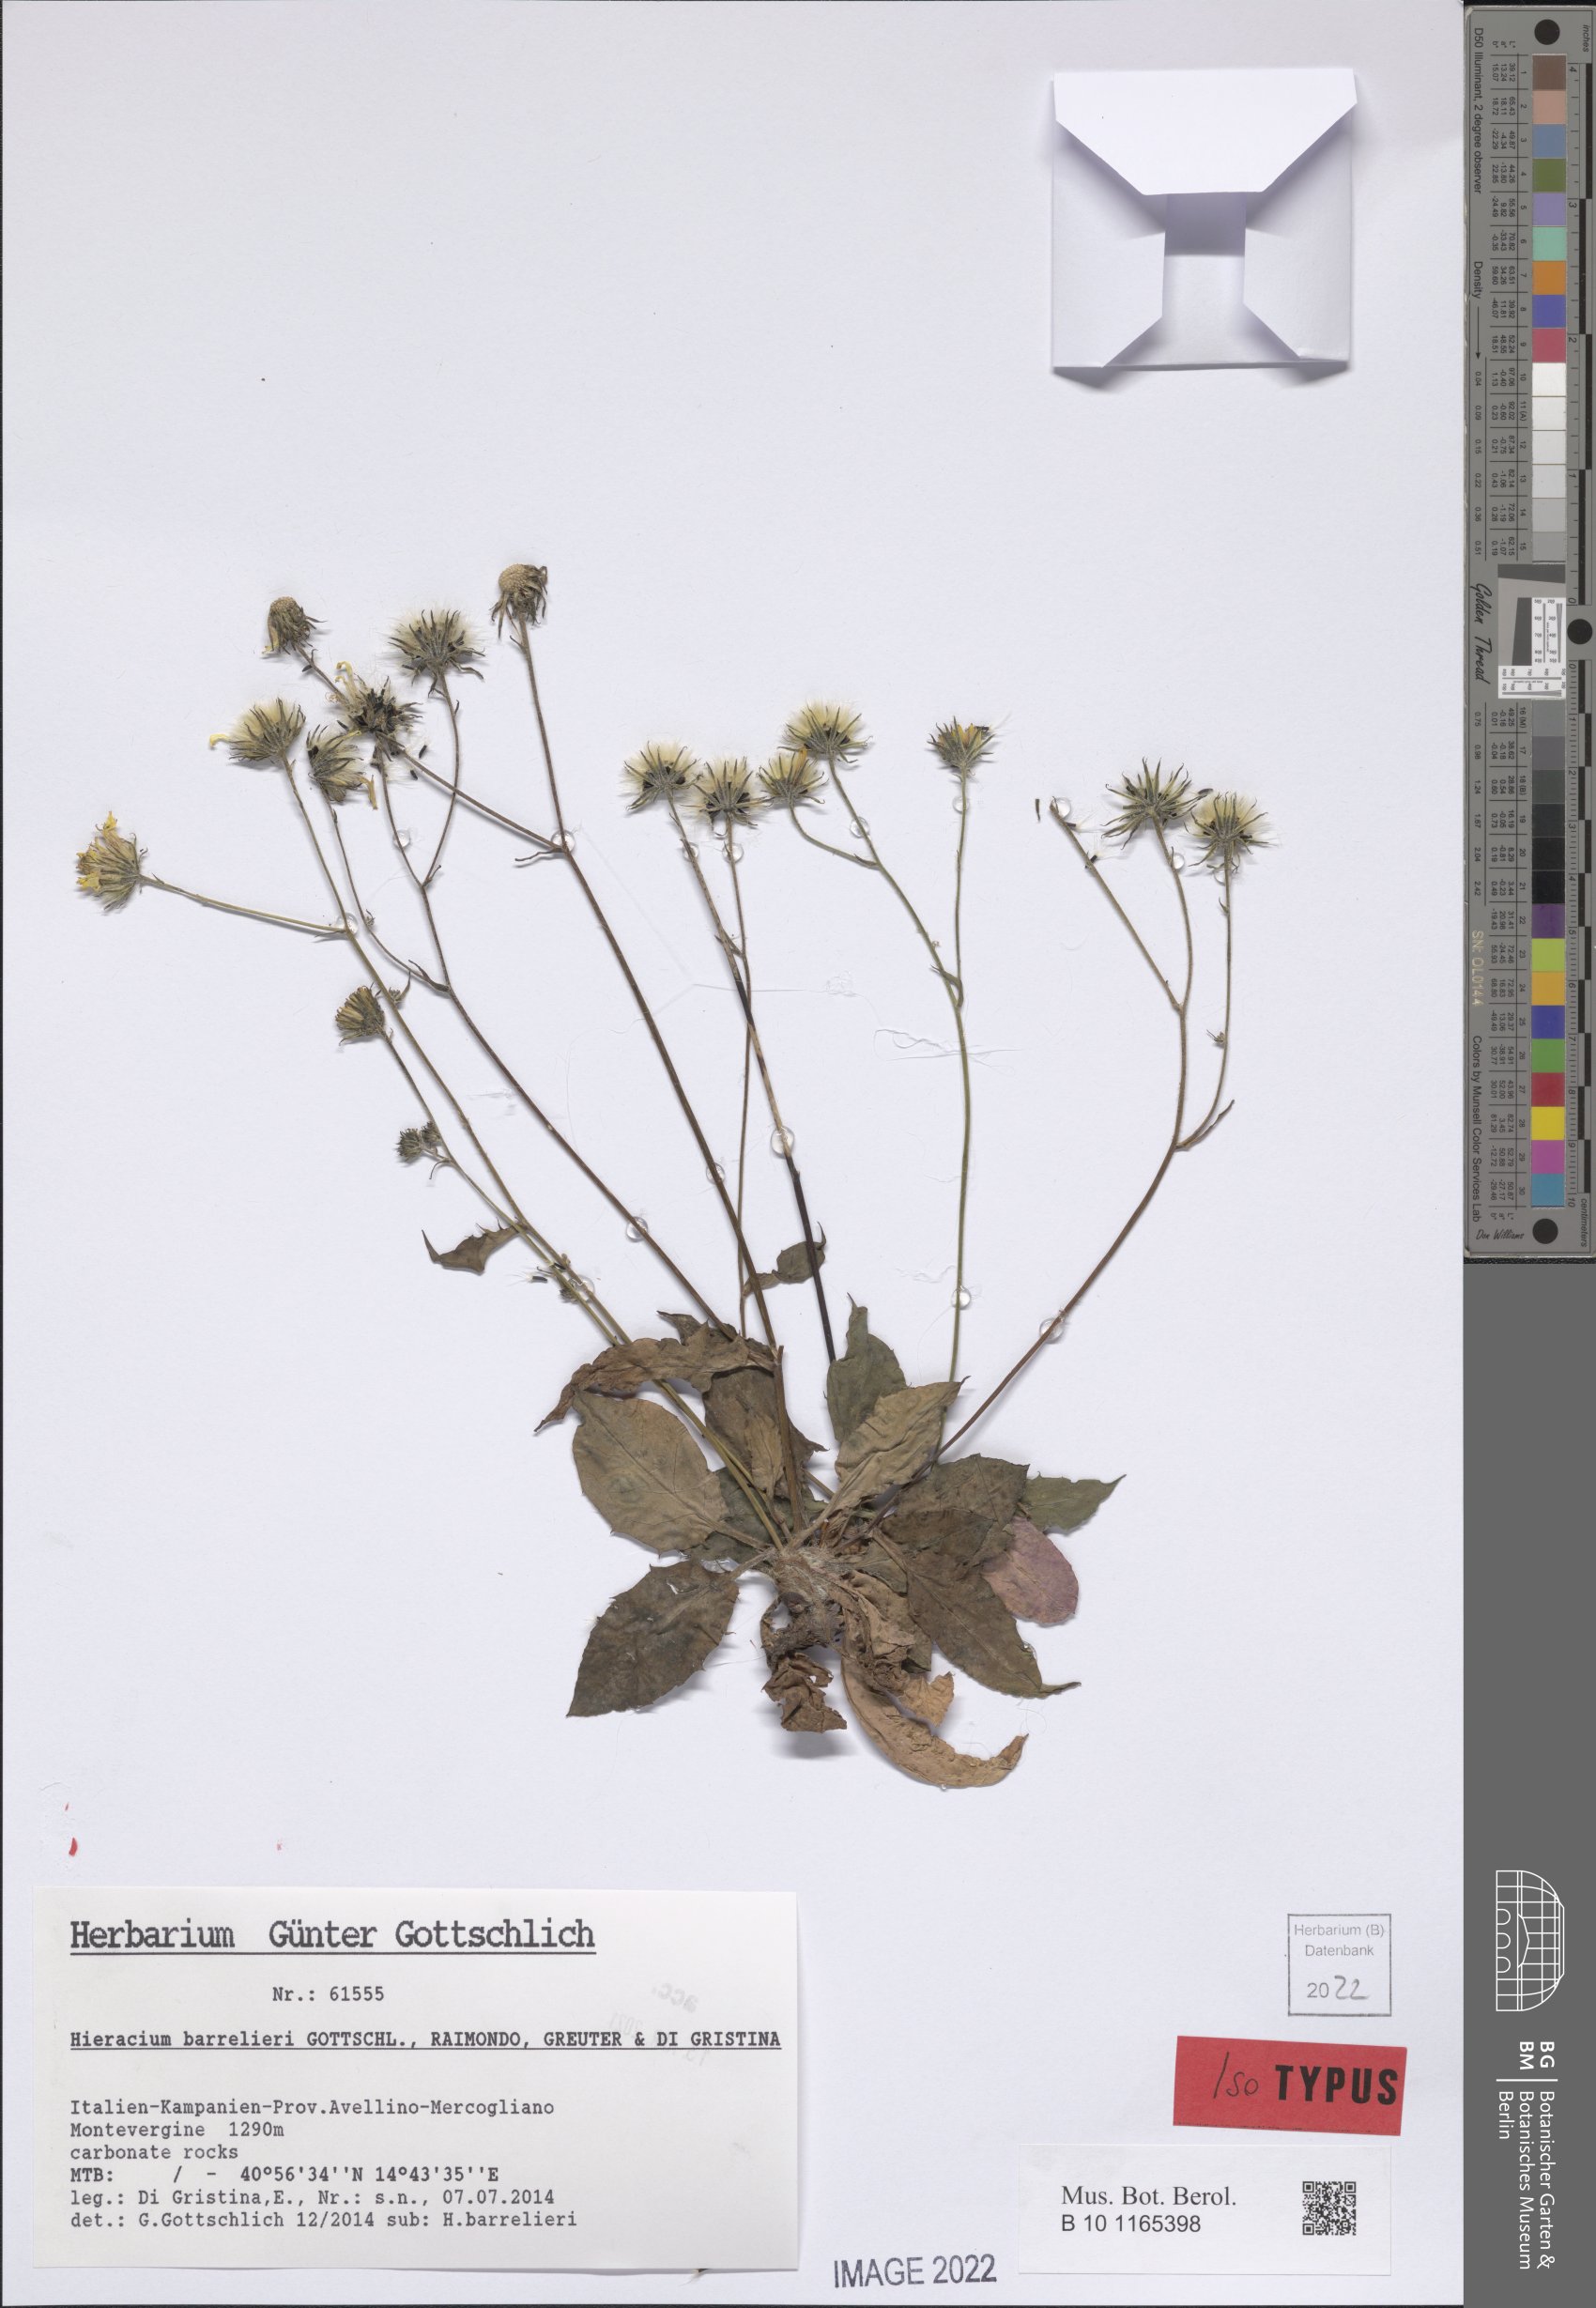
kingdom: Plantae
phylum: Tracheophyta
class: Magnoliopsida
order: Asterales
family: Asteraceae
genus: Hieracium
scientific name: Hieracium barrelieri
